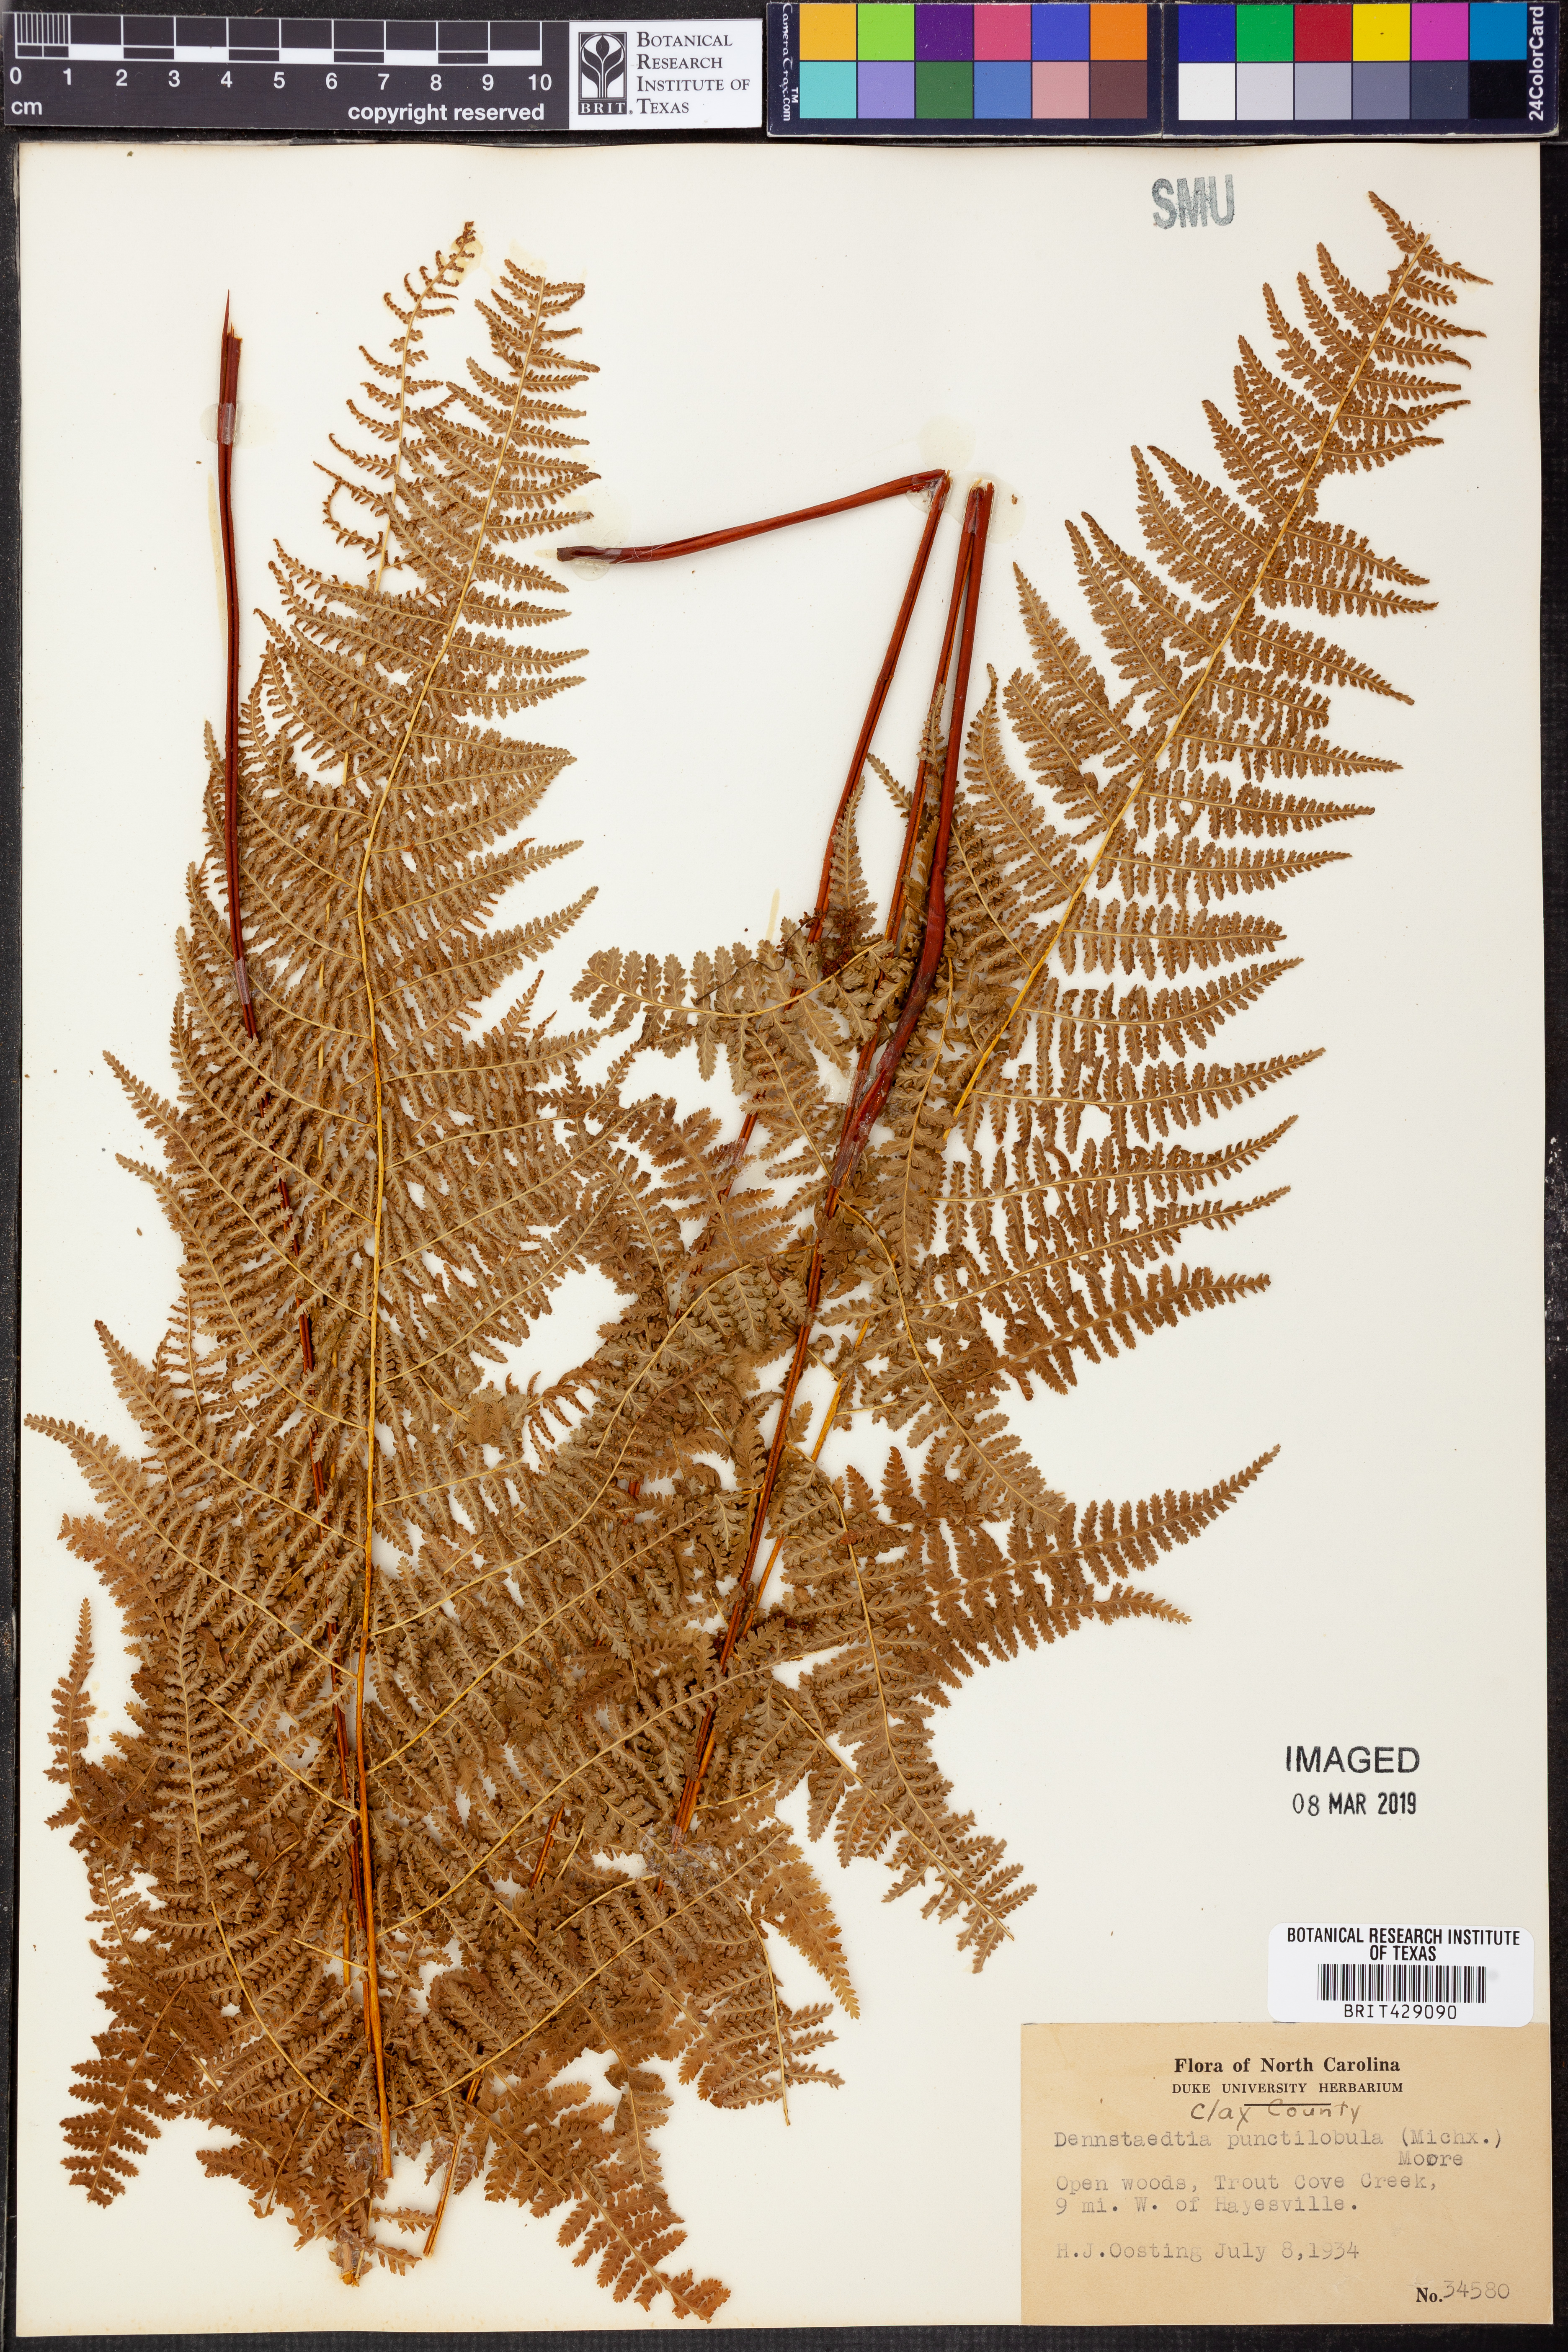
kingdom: Plantae
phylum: Tracheophyta
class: Polypodiopsida
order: Polypodiales
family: Dennstaedtiaceae
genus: Sitobolium
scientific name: Sitobolium punctilobum
